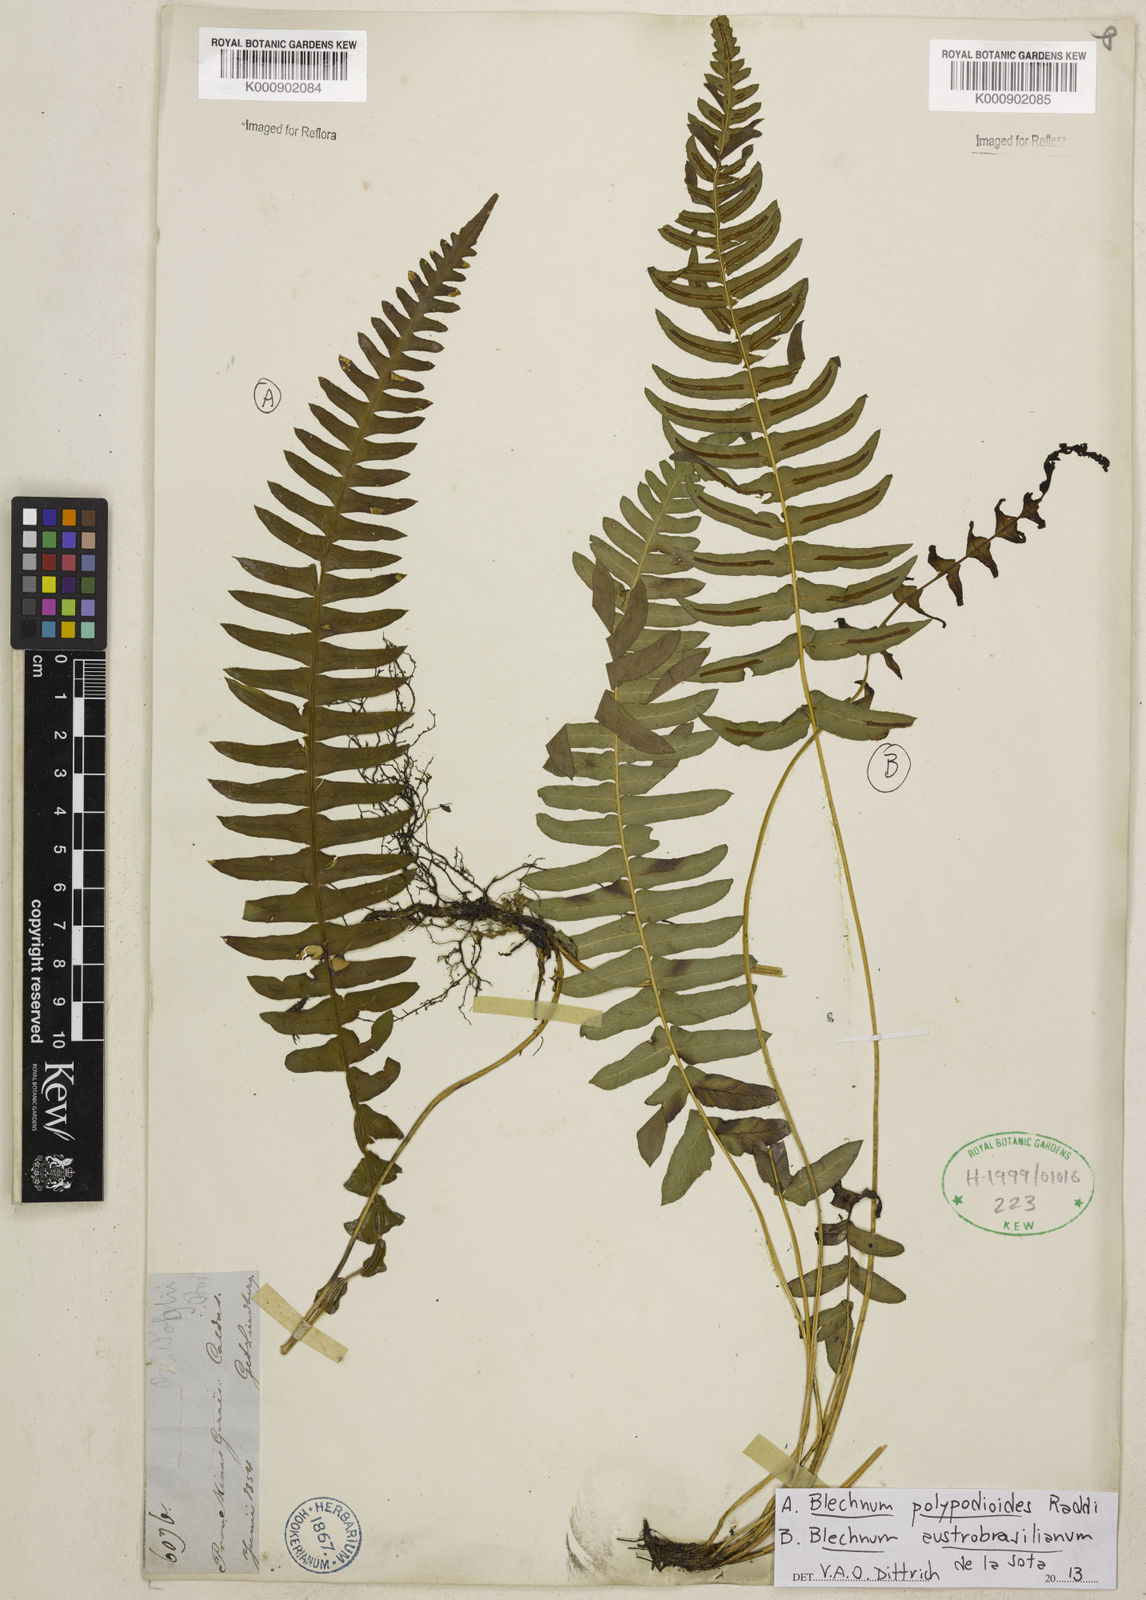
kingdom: Plantae
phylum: Tracheophyta
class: Polypodiopsida
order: Polypodiales
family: Blechnaceae
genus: Blechnum
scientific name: Blechnum polypodioides
